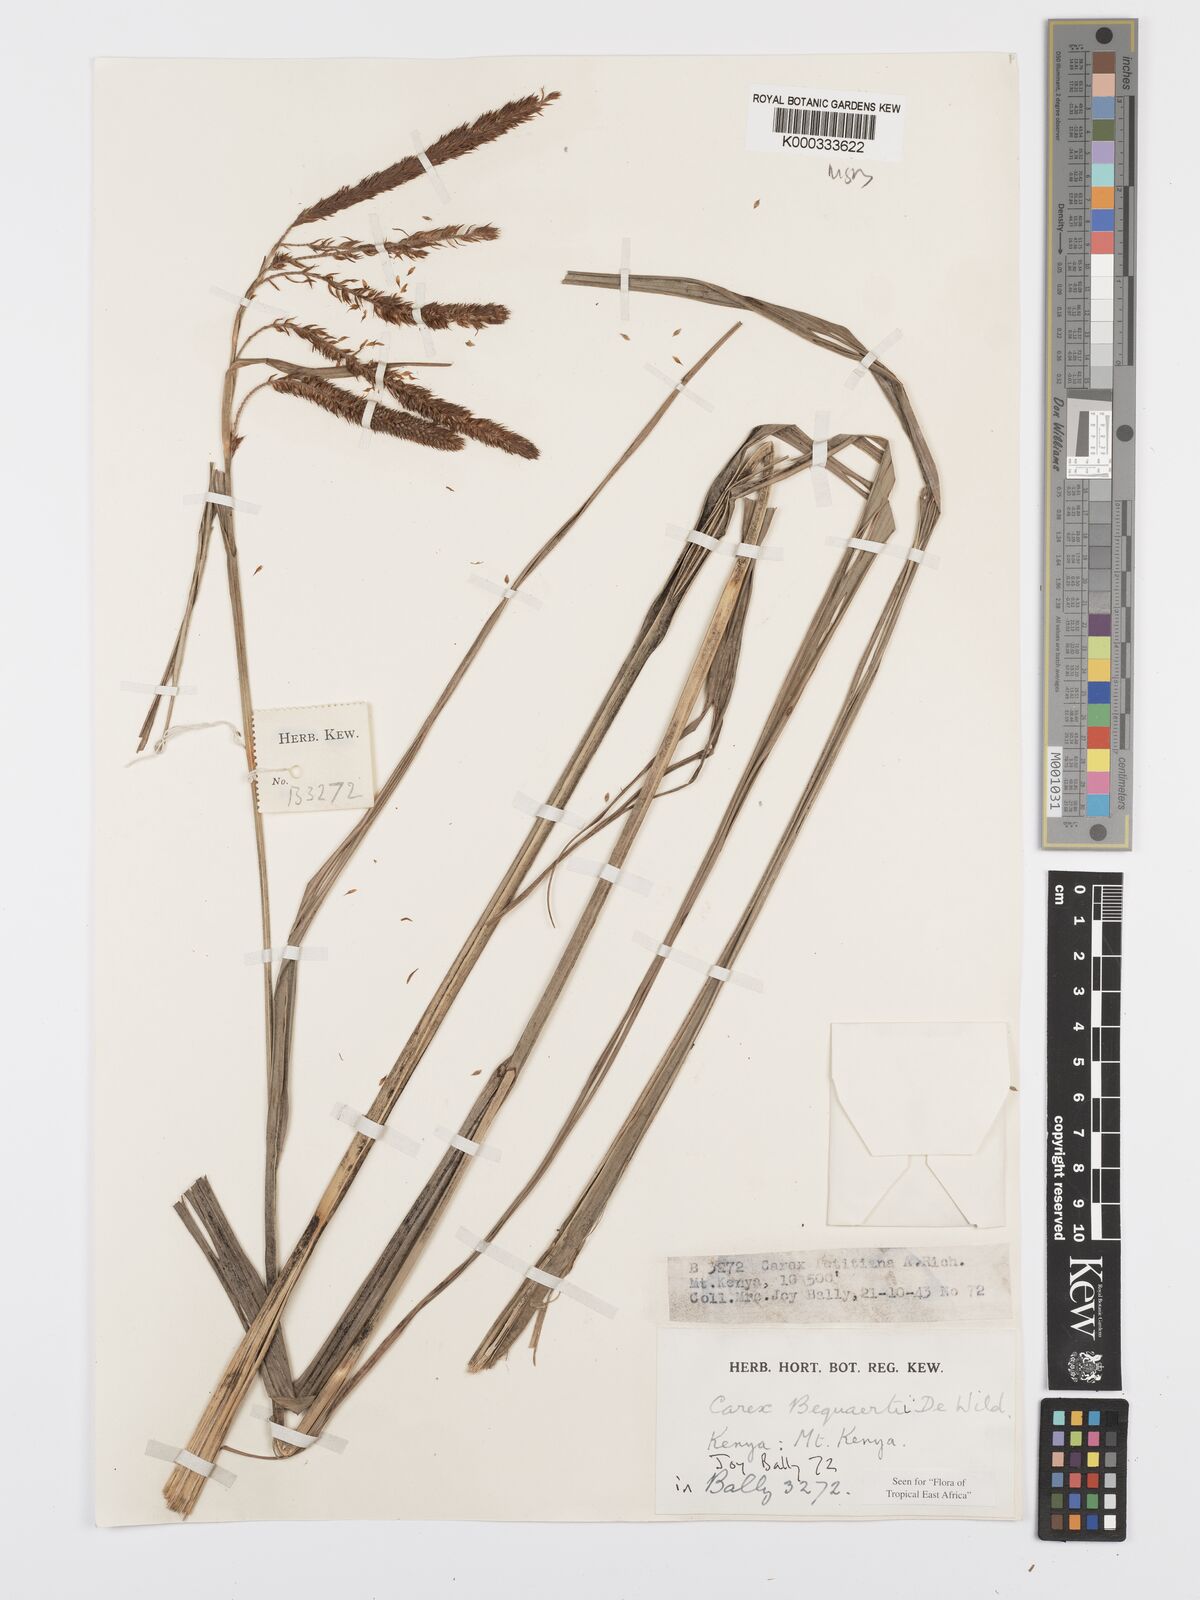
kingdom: Plantae
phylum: Tracheophyta
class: Liliopsida
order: Poales
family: Cyperaceae
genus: Carex
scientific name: Carex bequaertii
